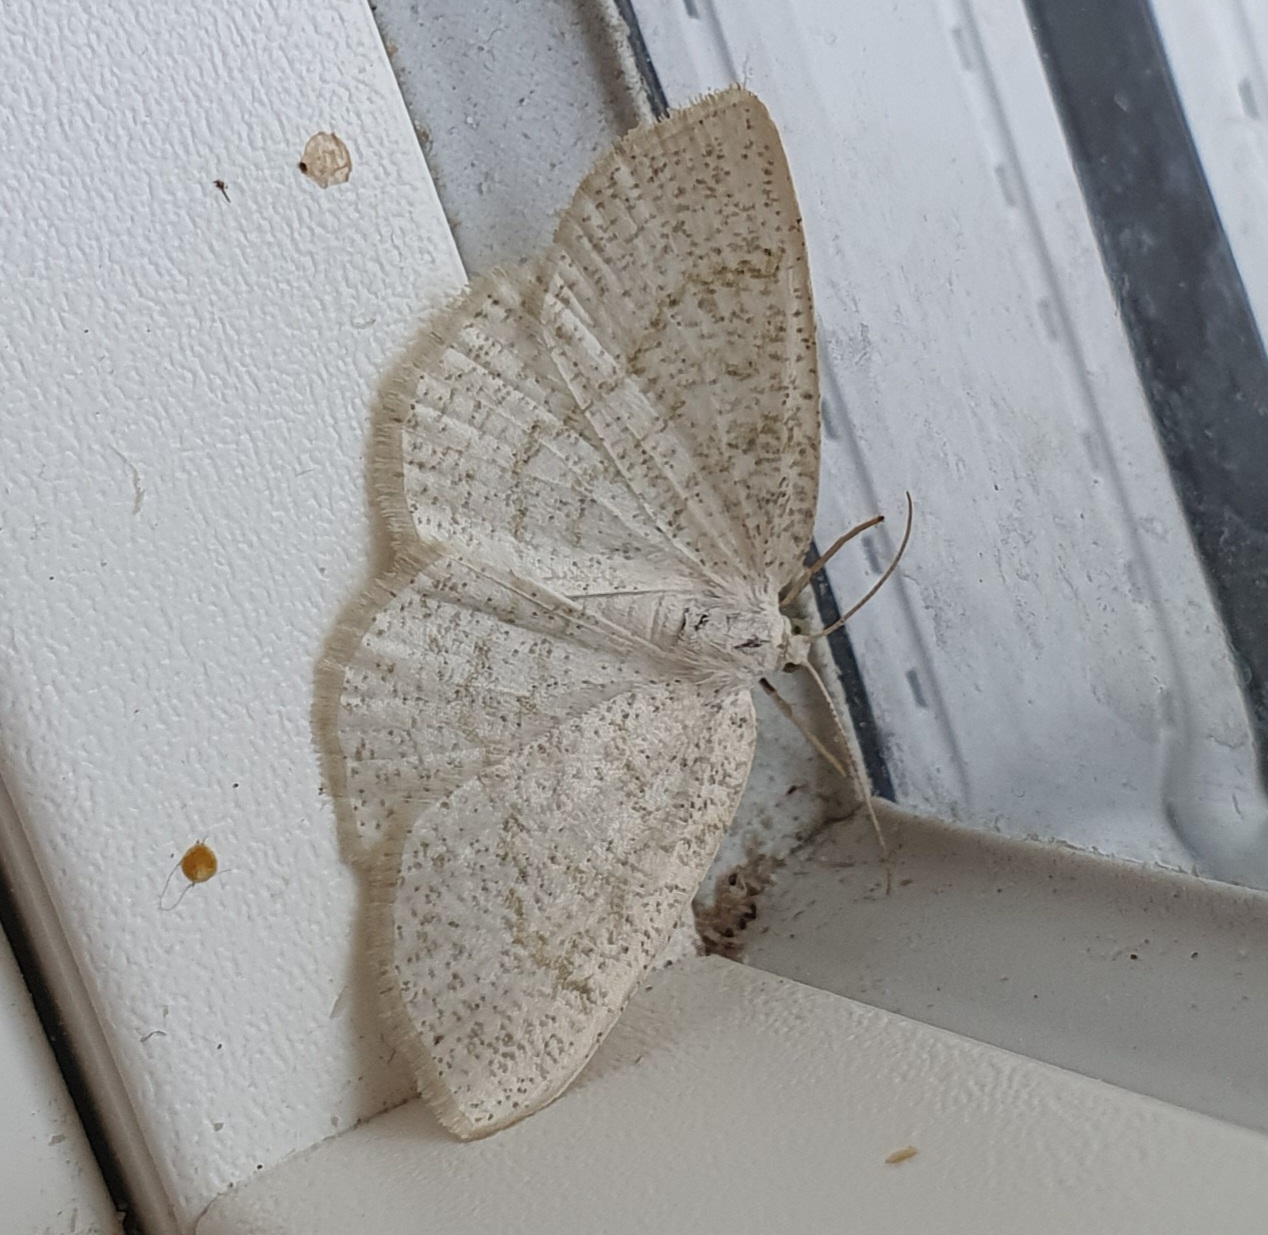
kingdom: Animalia
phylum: Arthropoda
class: Insecta
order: Lepidoptera
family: Geometridae
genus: Cabera
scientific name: Cabera exanthemata
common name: Gulhvid stregmåler
